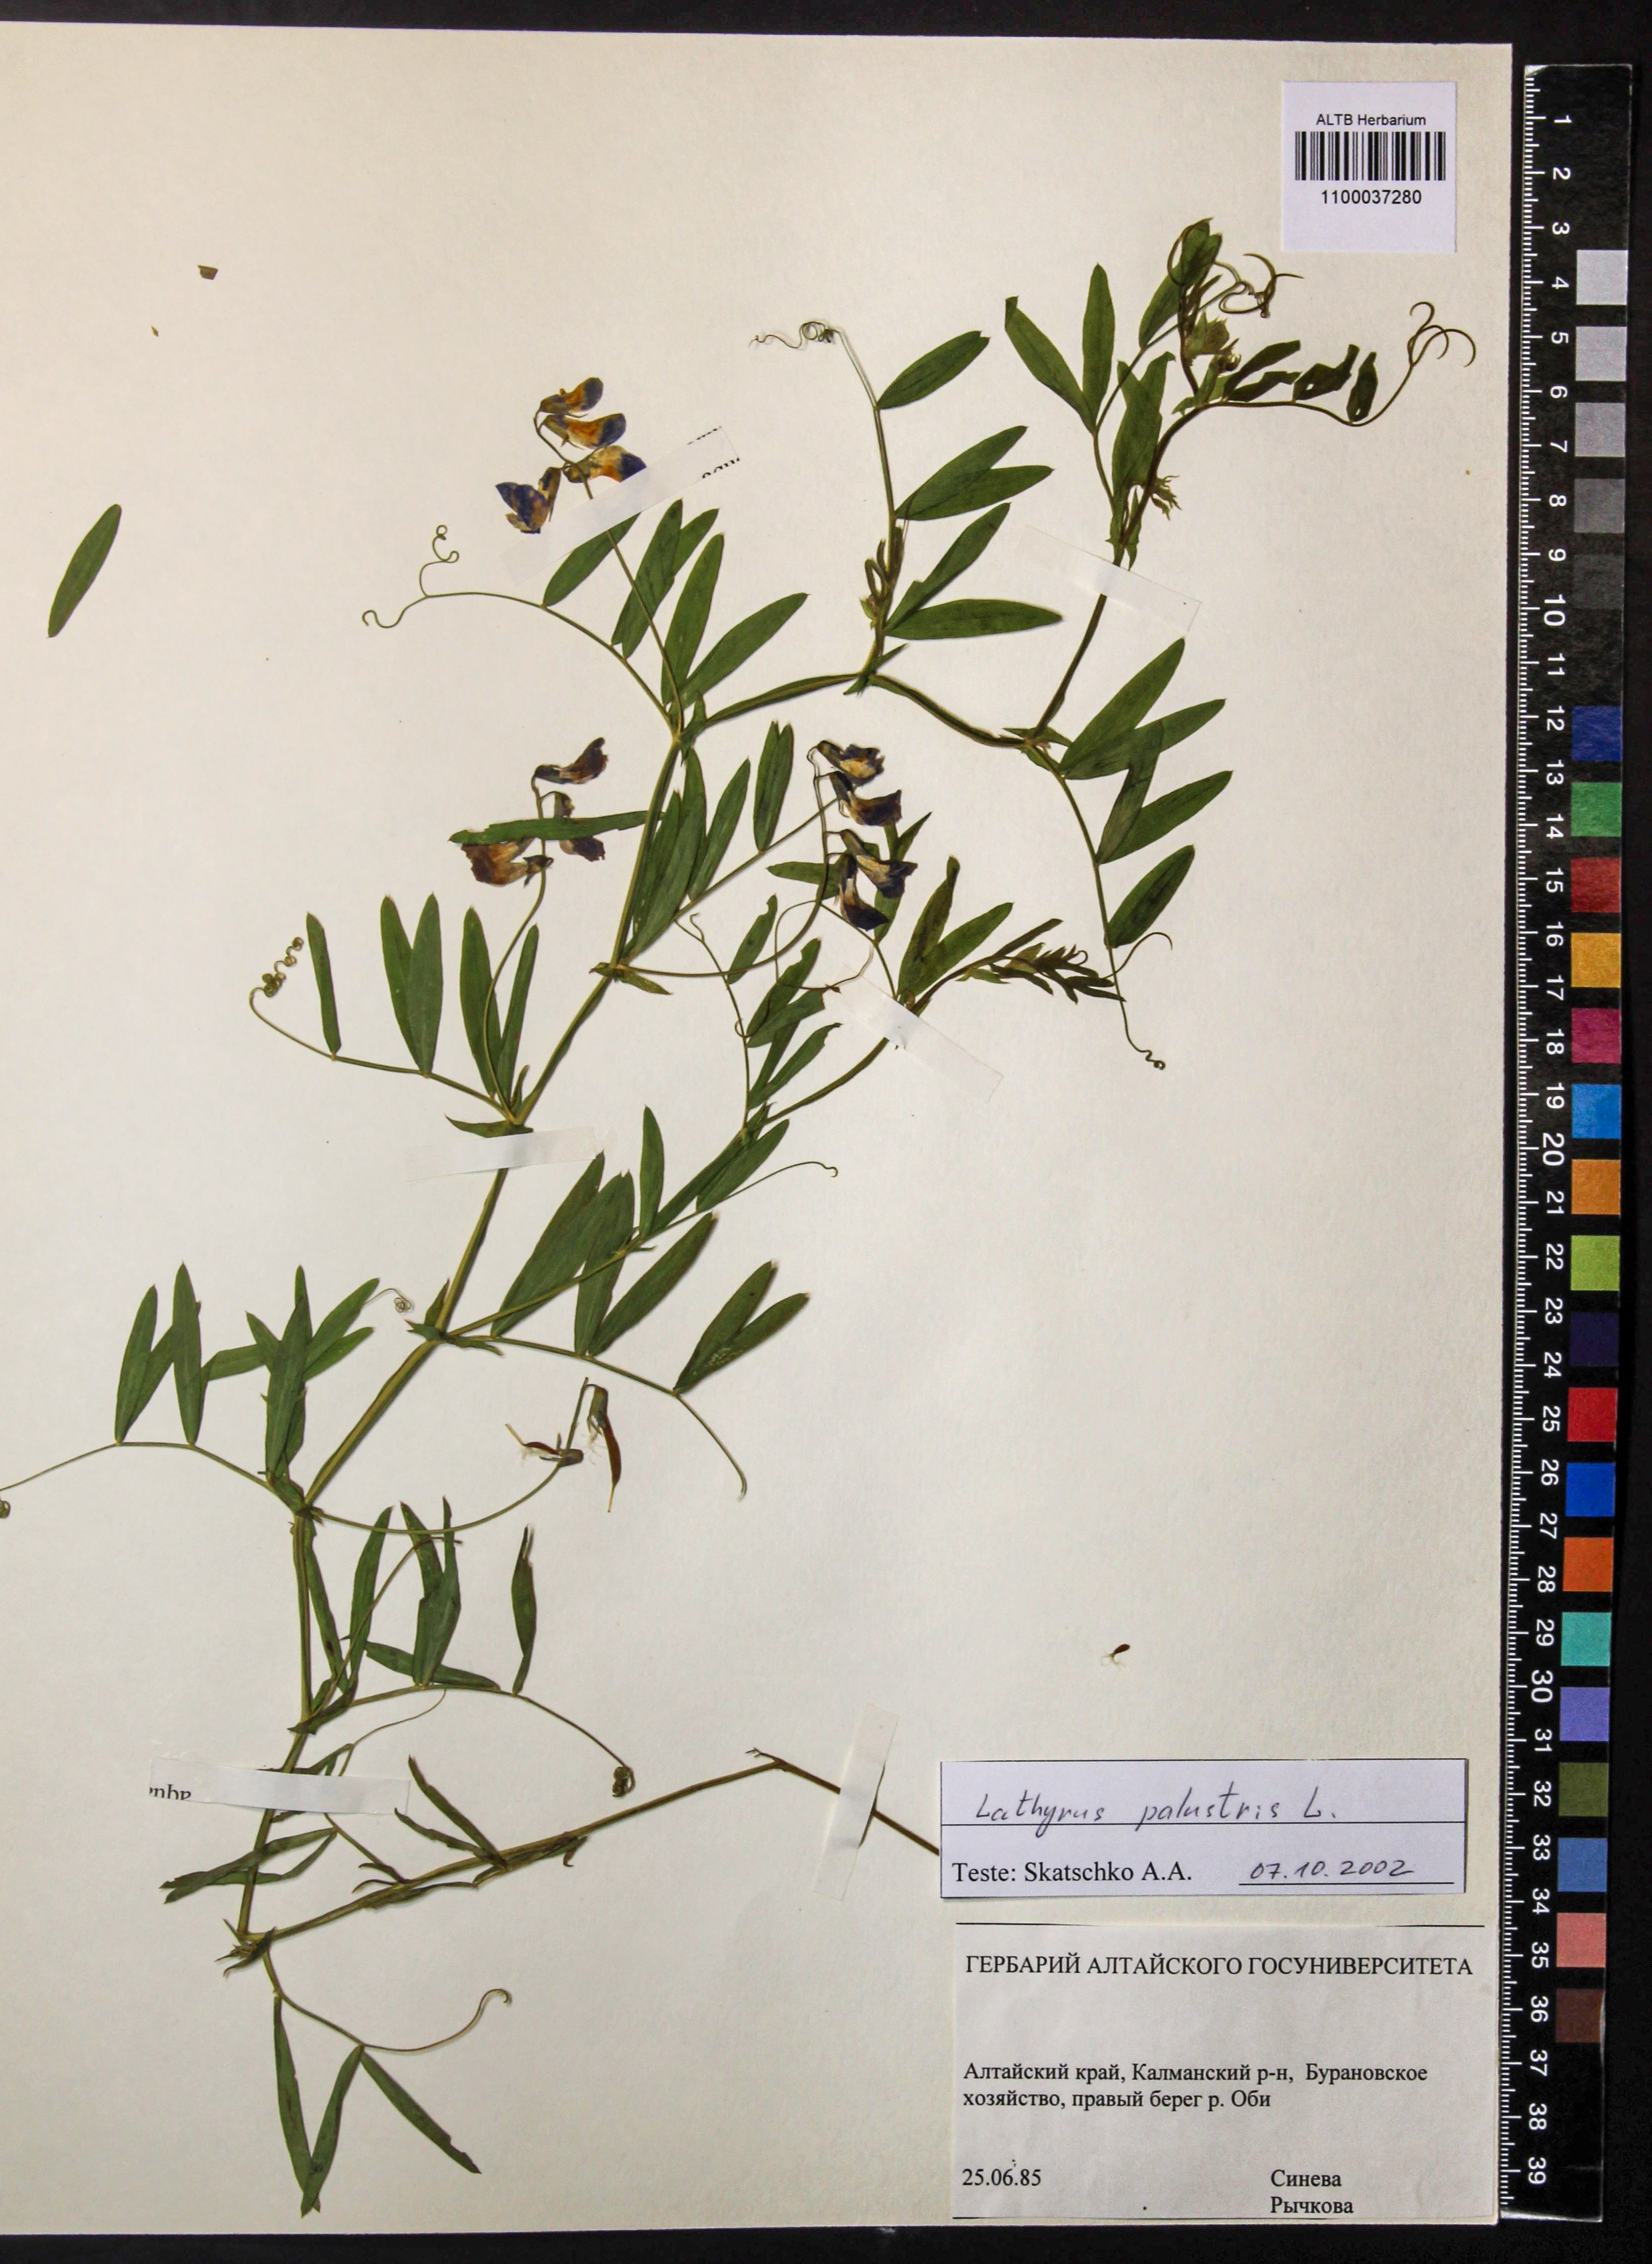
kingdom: Plantae
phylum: Tracheophyta
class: Magnoliopsida
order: Fabales
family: Fabaceae
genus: Lathyrus
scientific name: Lathyrus palustris
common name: Marsh pea
